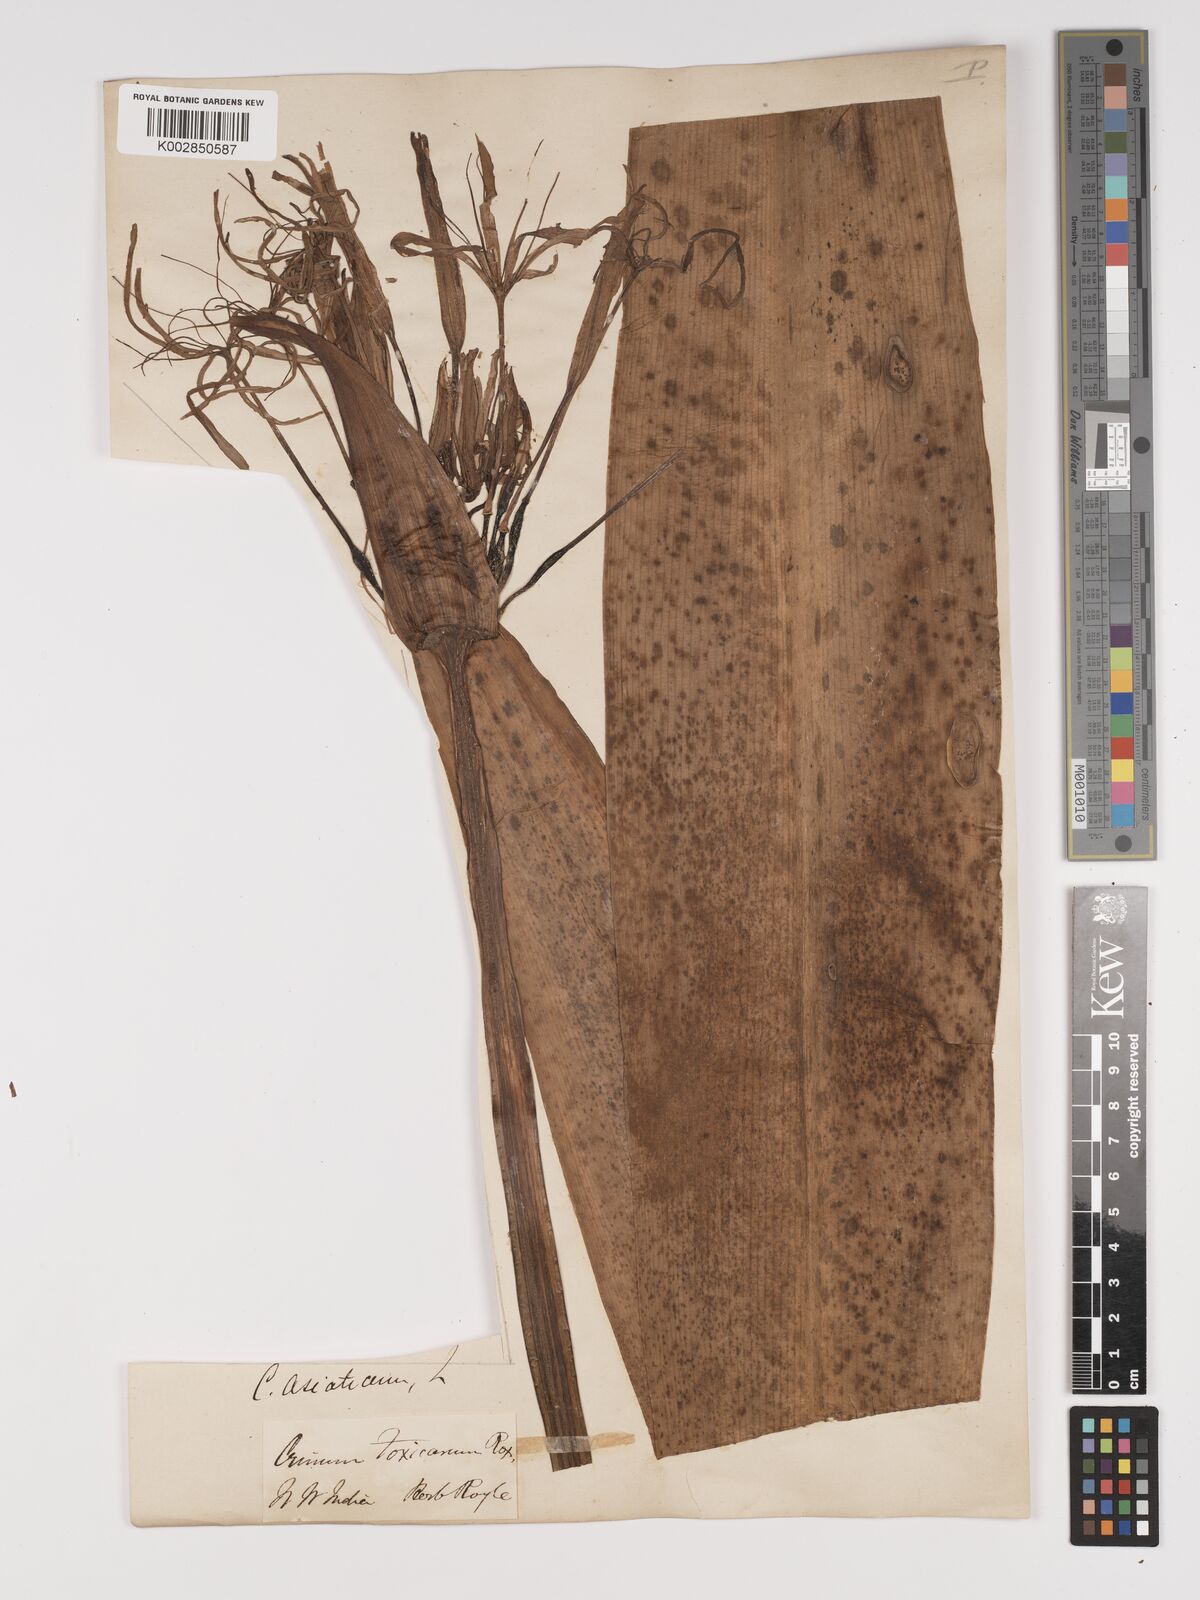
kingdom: Plantae
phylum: Tracheophyta
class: Liliopsida
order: Asparagales
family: Amaryllidaceae
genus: Crinum
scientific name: Crinum asiaticum
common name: Poisonbulb
